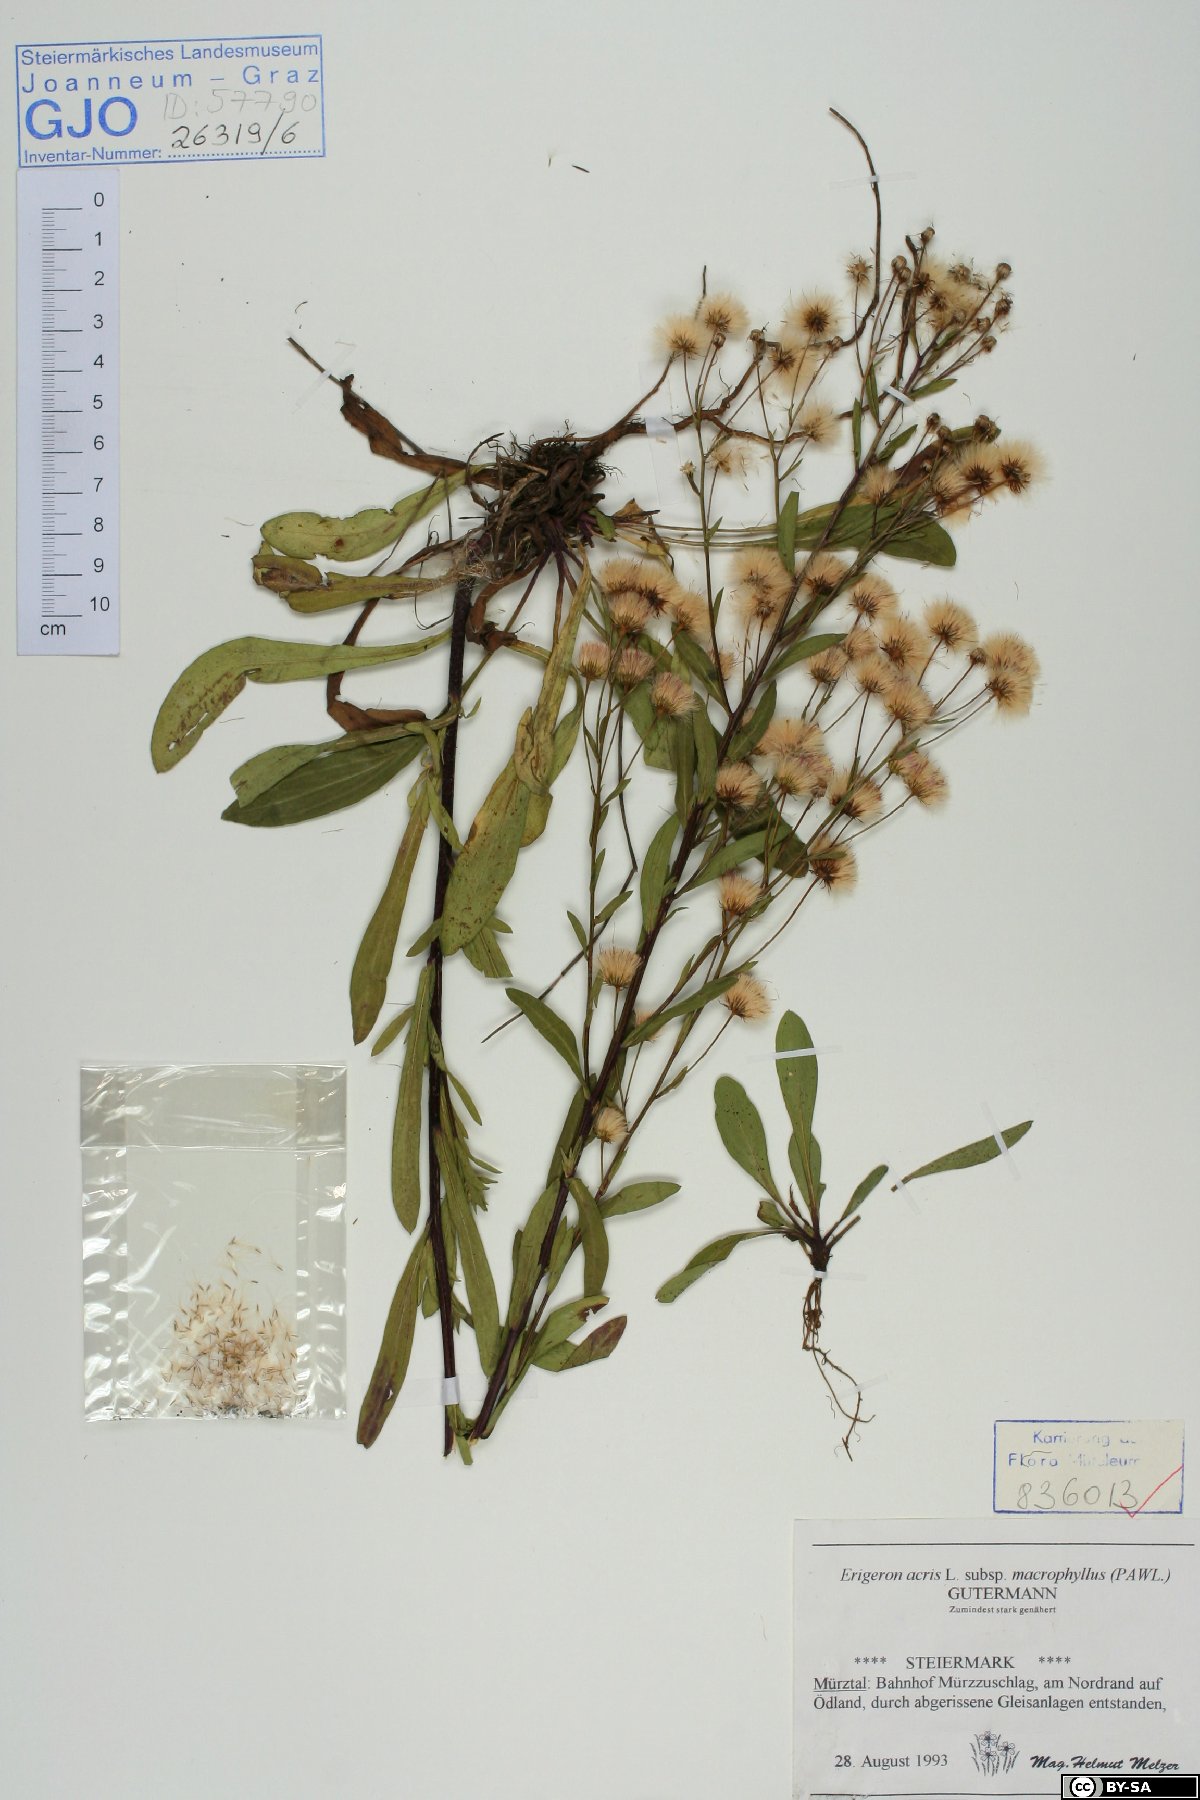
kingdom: Plantae
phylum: Tracheophyta
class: Magnoliopsida
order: Asterales
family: Asteraceae
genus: Erigeron
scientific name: Erigeron macrophyllus
